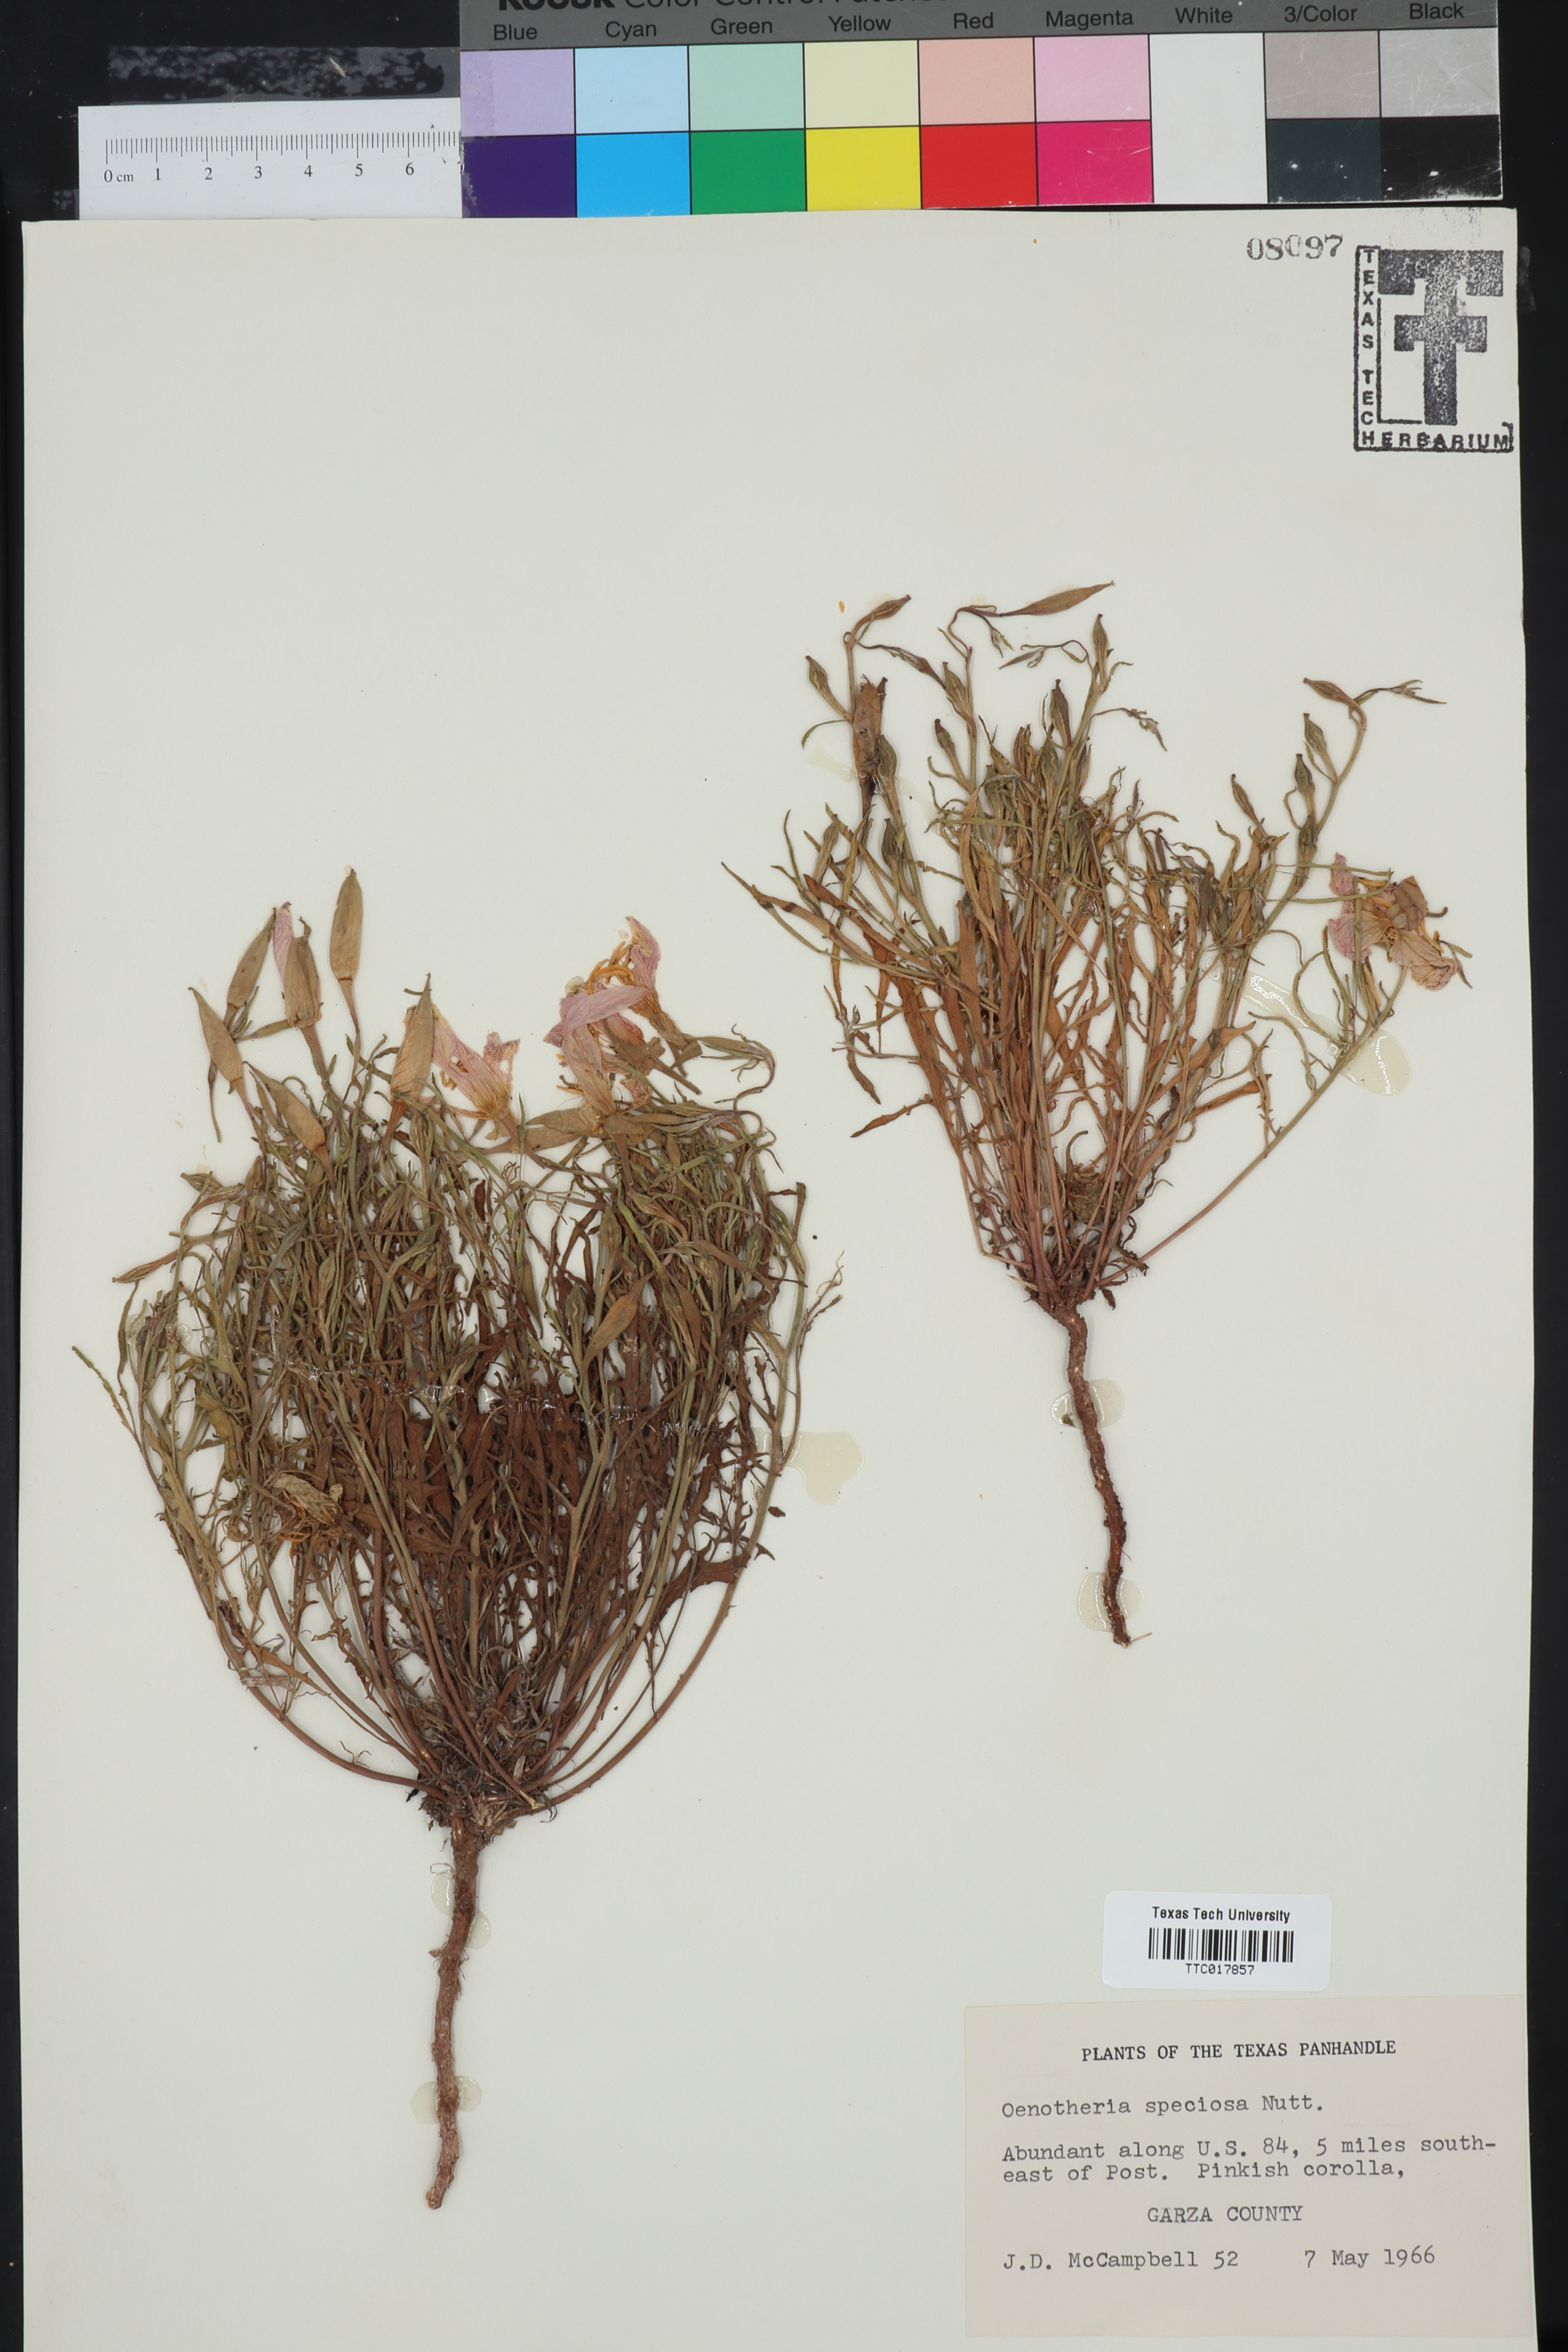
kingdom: Plantae
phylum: Tracheophyta
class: Magnoliopsida
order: Myrtales
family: Onagraceae
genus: Oenothera
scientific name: Oenothera speciosa
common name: White evening-primrose
